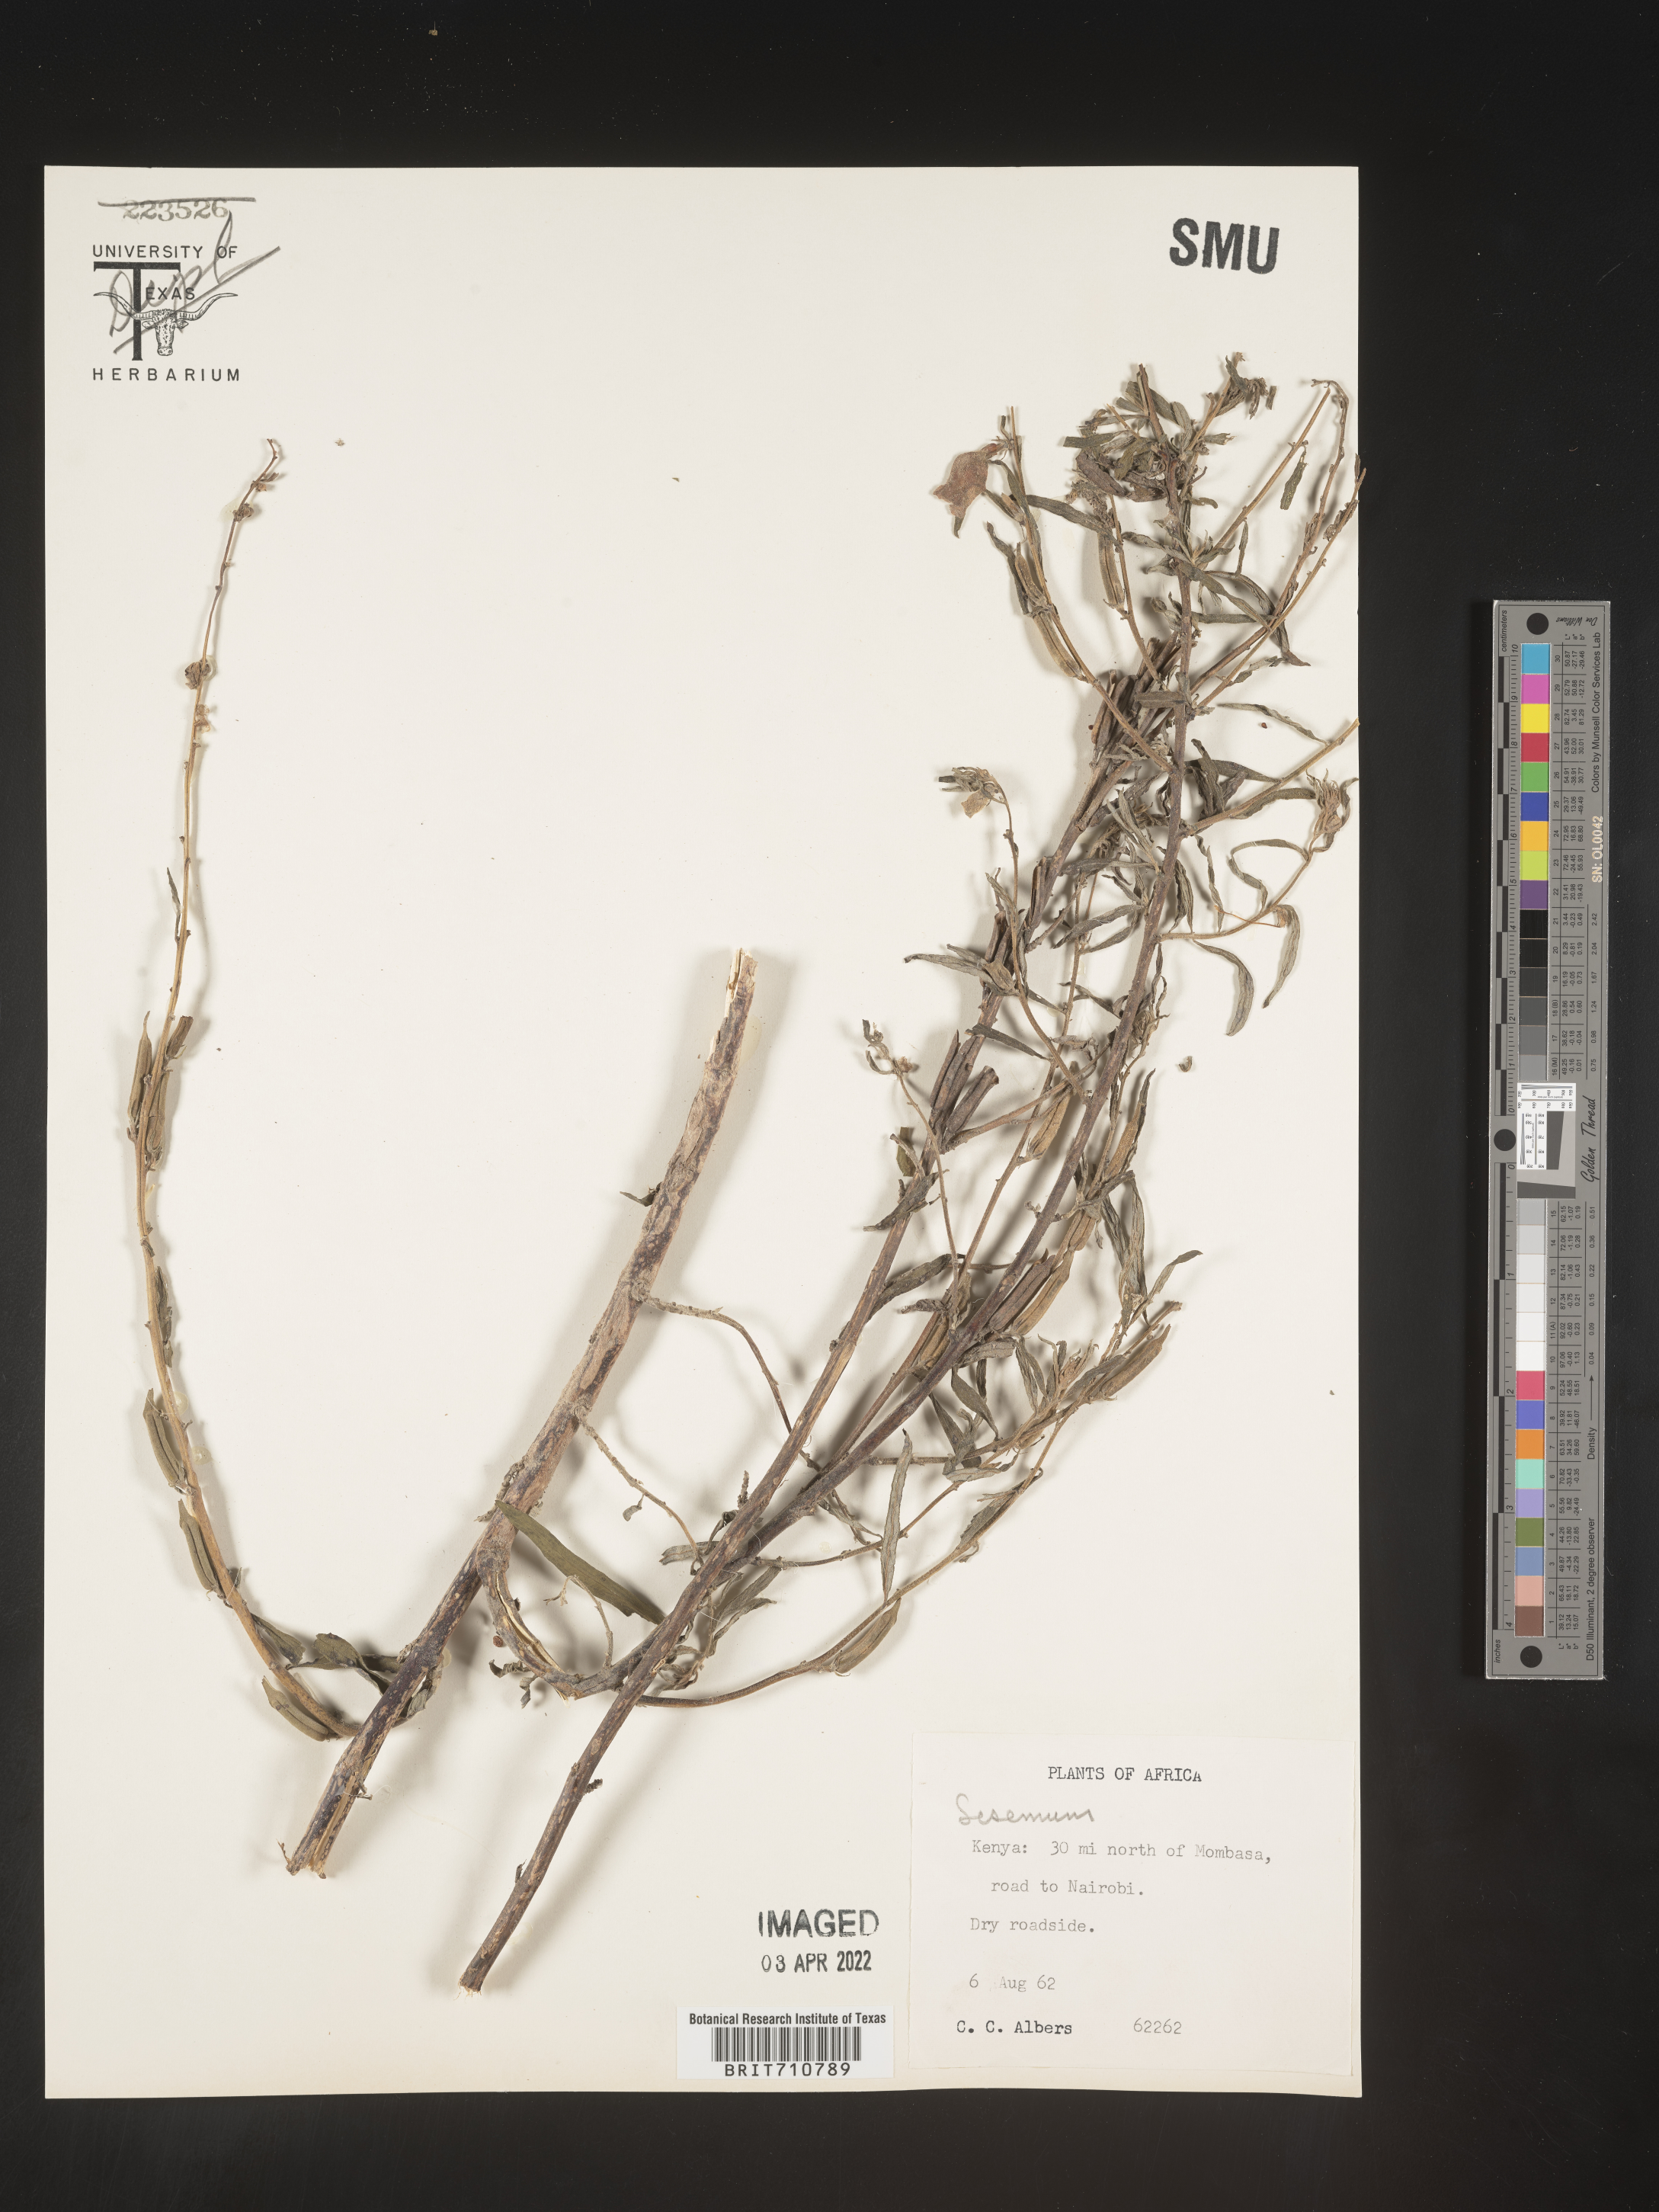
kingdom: Plantae
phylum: Tracheophyta
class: Magnoliopsida
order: Lamiales
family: Pedaliaceae
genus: Sesamum
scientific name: Sesamum
